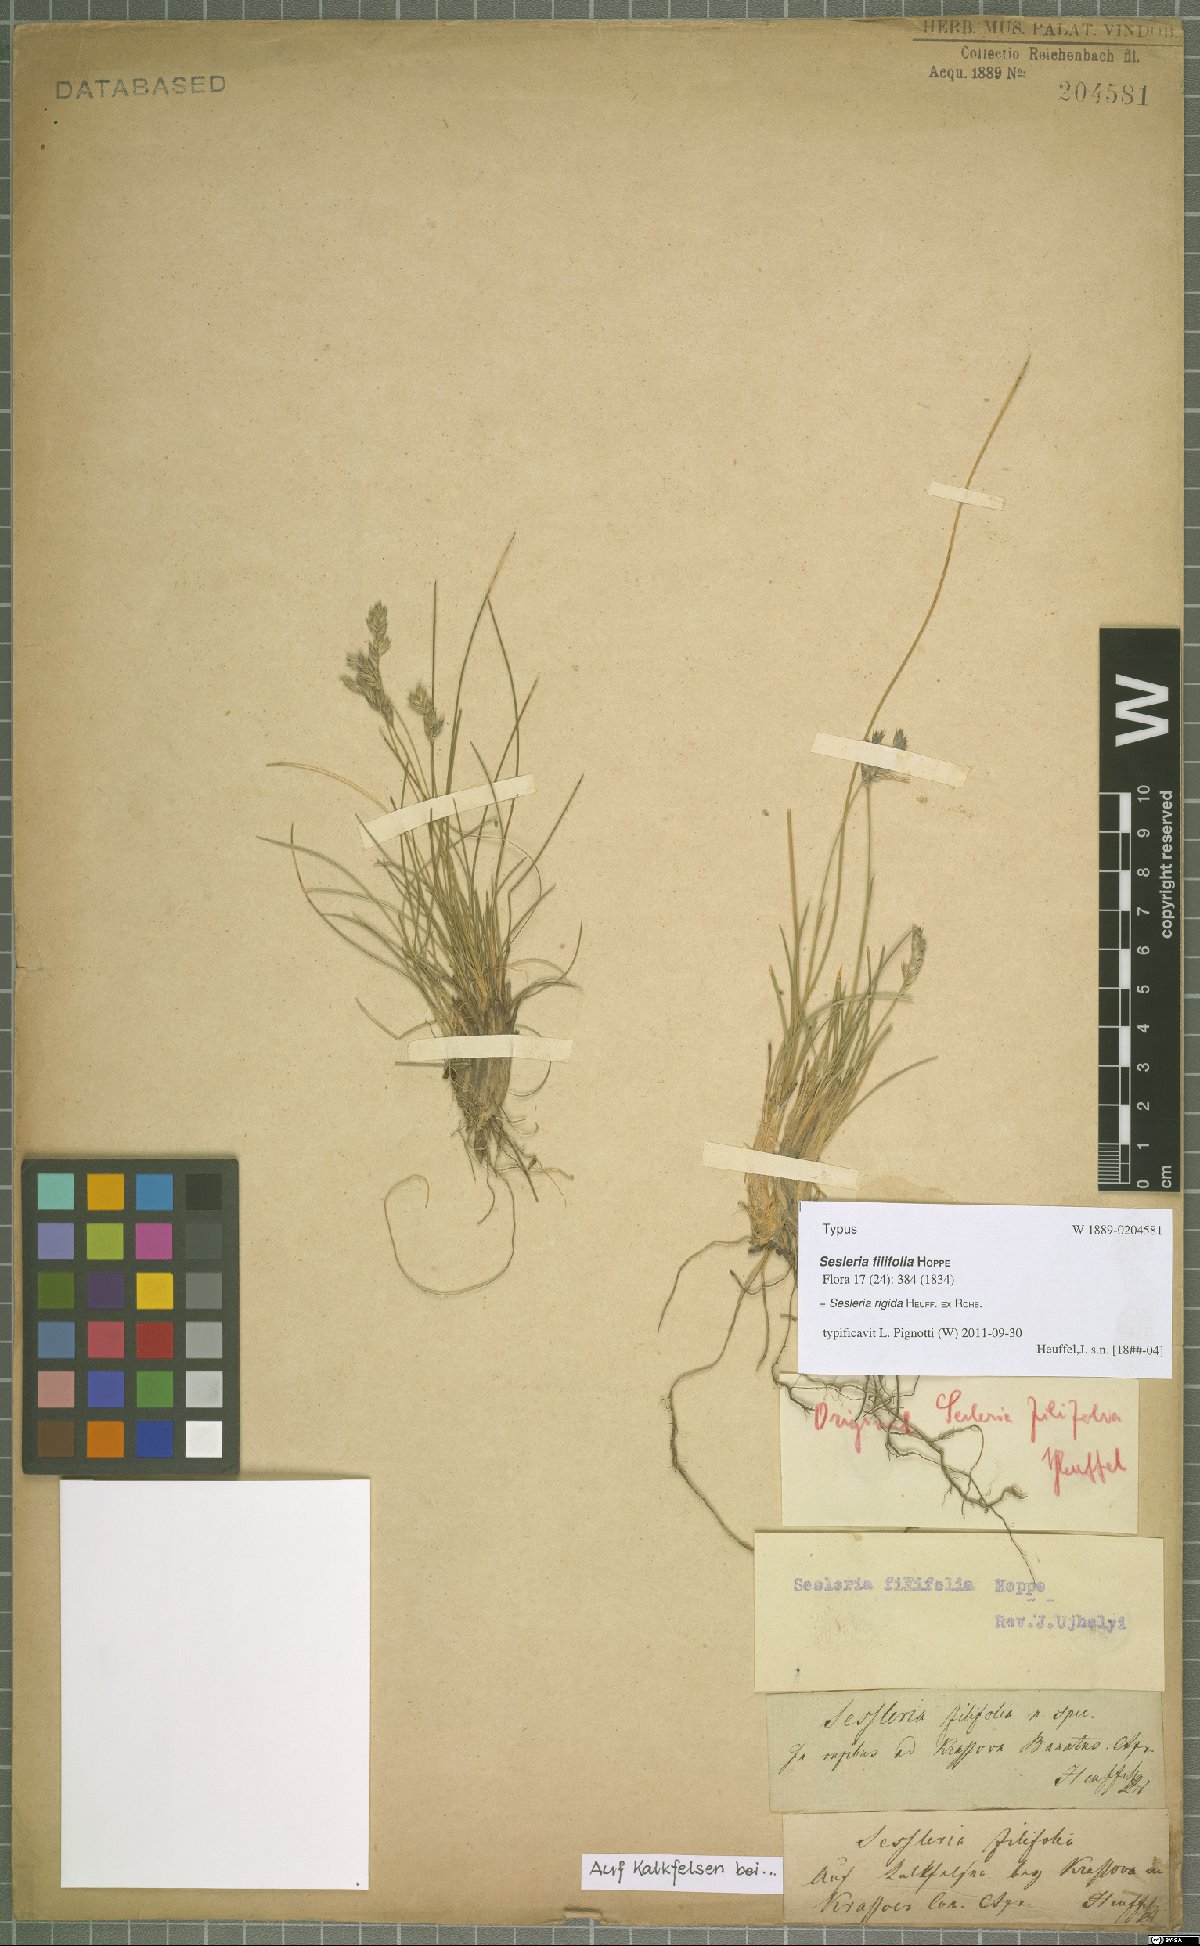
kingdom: Plantae
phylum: Tracheophyta
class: Liliopsida
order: Poales
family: Poaceae
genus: Sesleria
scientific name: Sesleria rigida
